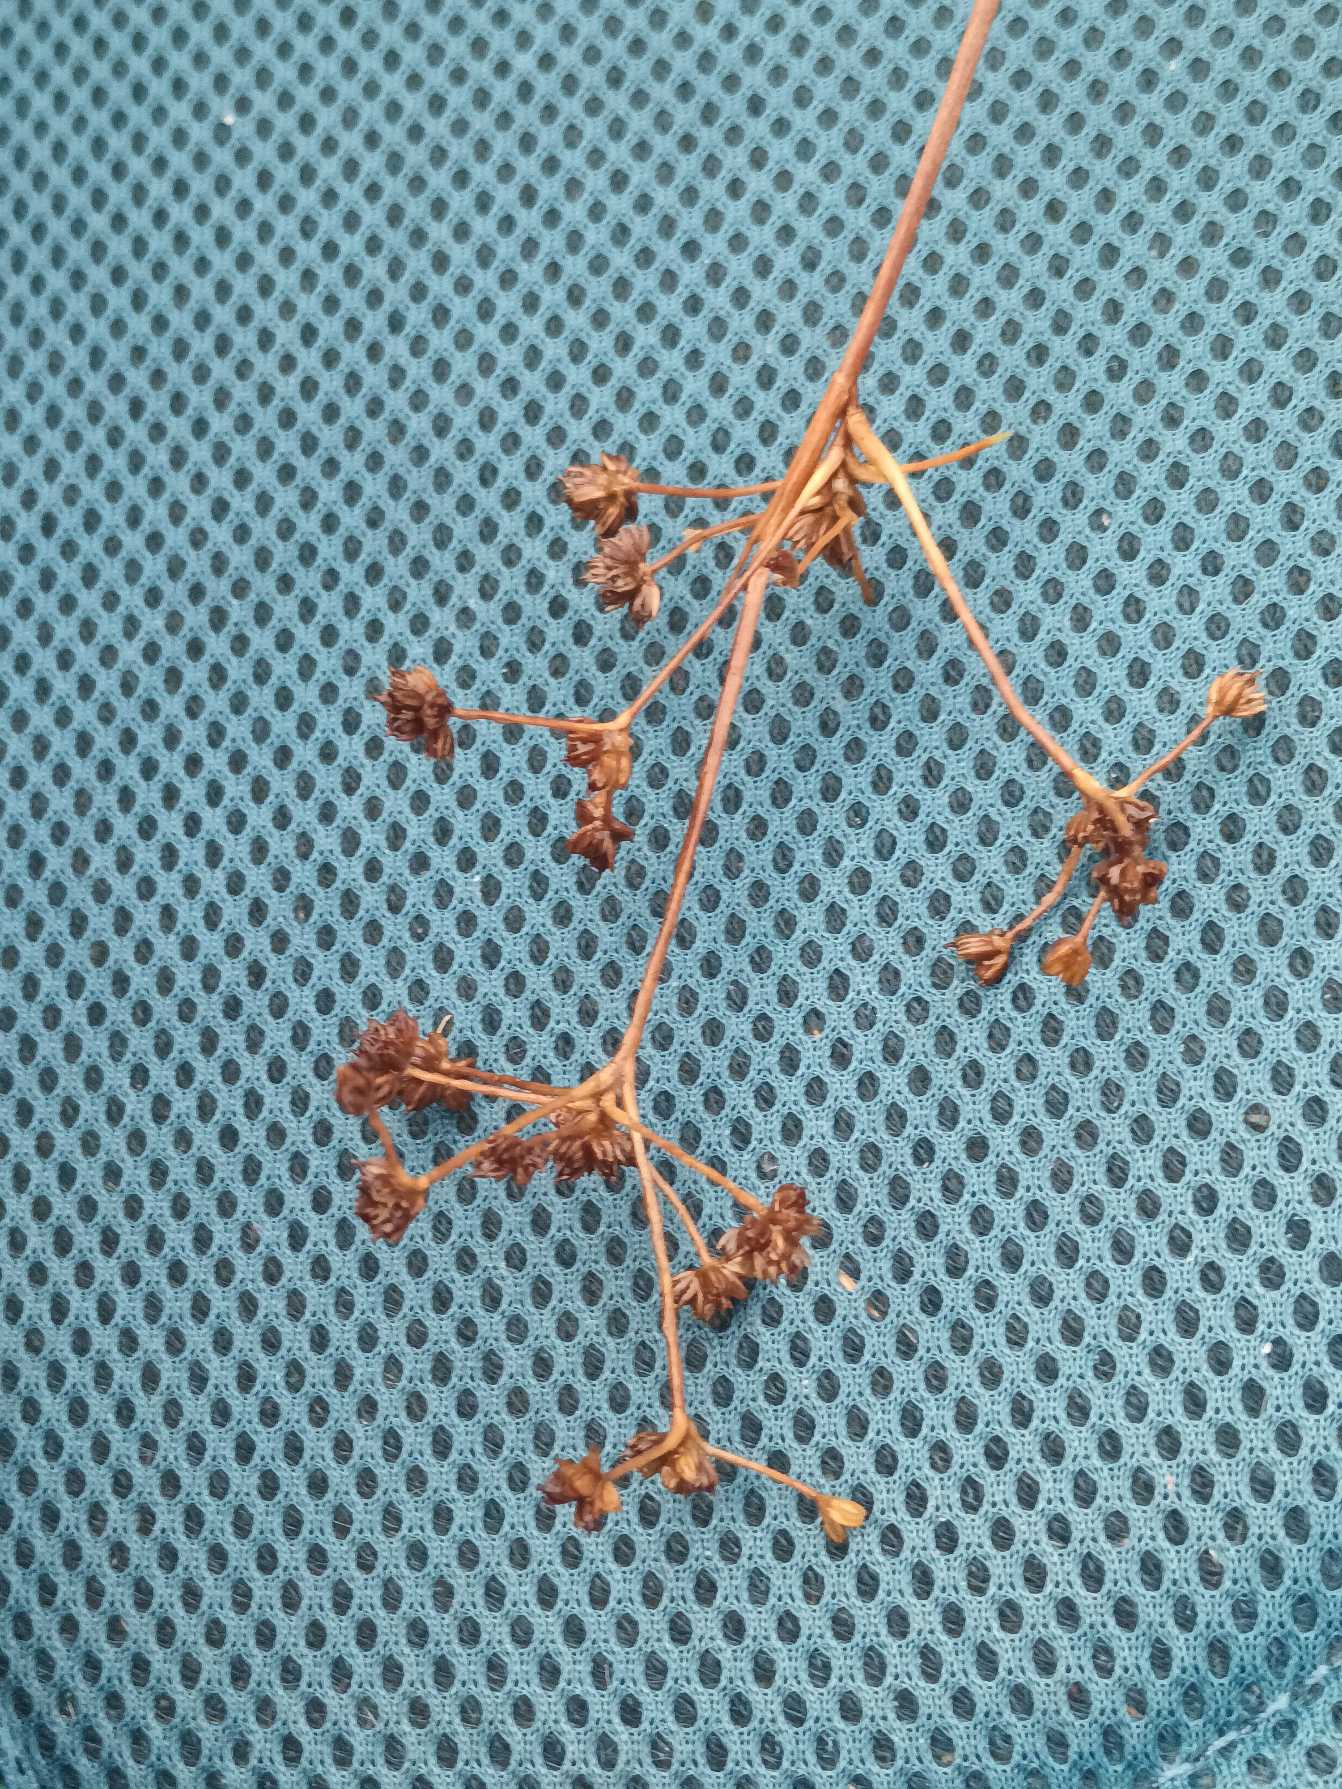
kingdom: Plantae
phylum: Tracheophyta
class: Liliopsida
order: Poales
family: Juncaceae
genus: Juncus
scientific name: Juncus subnodulosus
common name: Butblomstret siv
